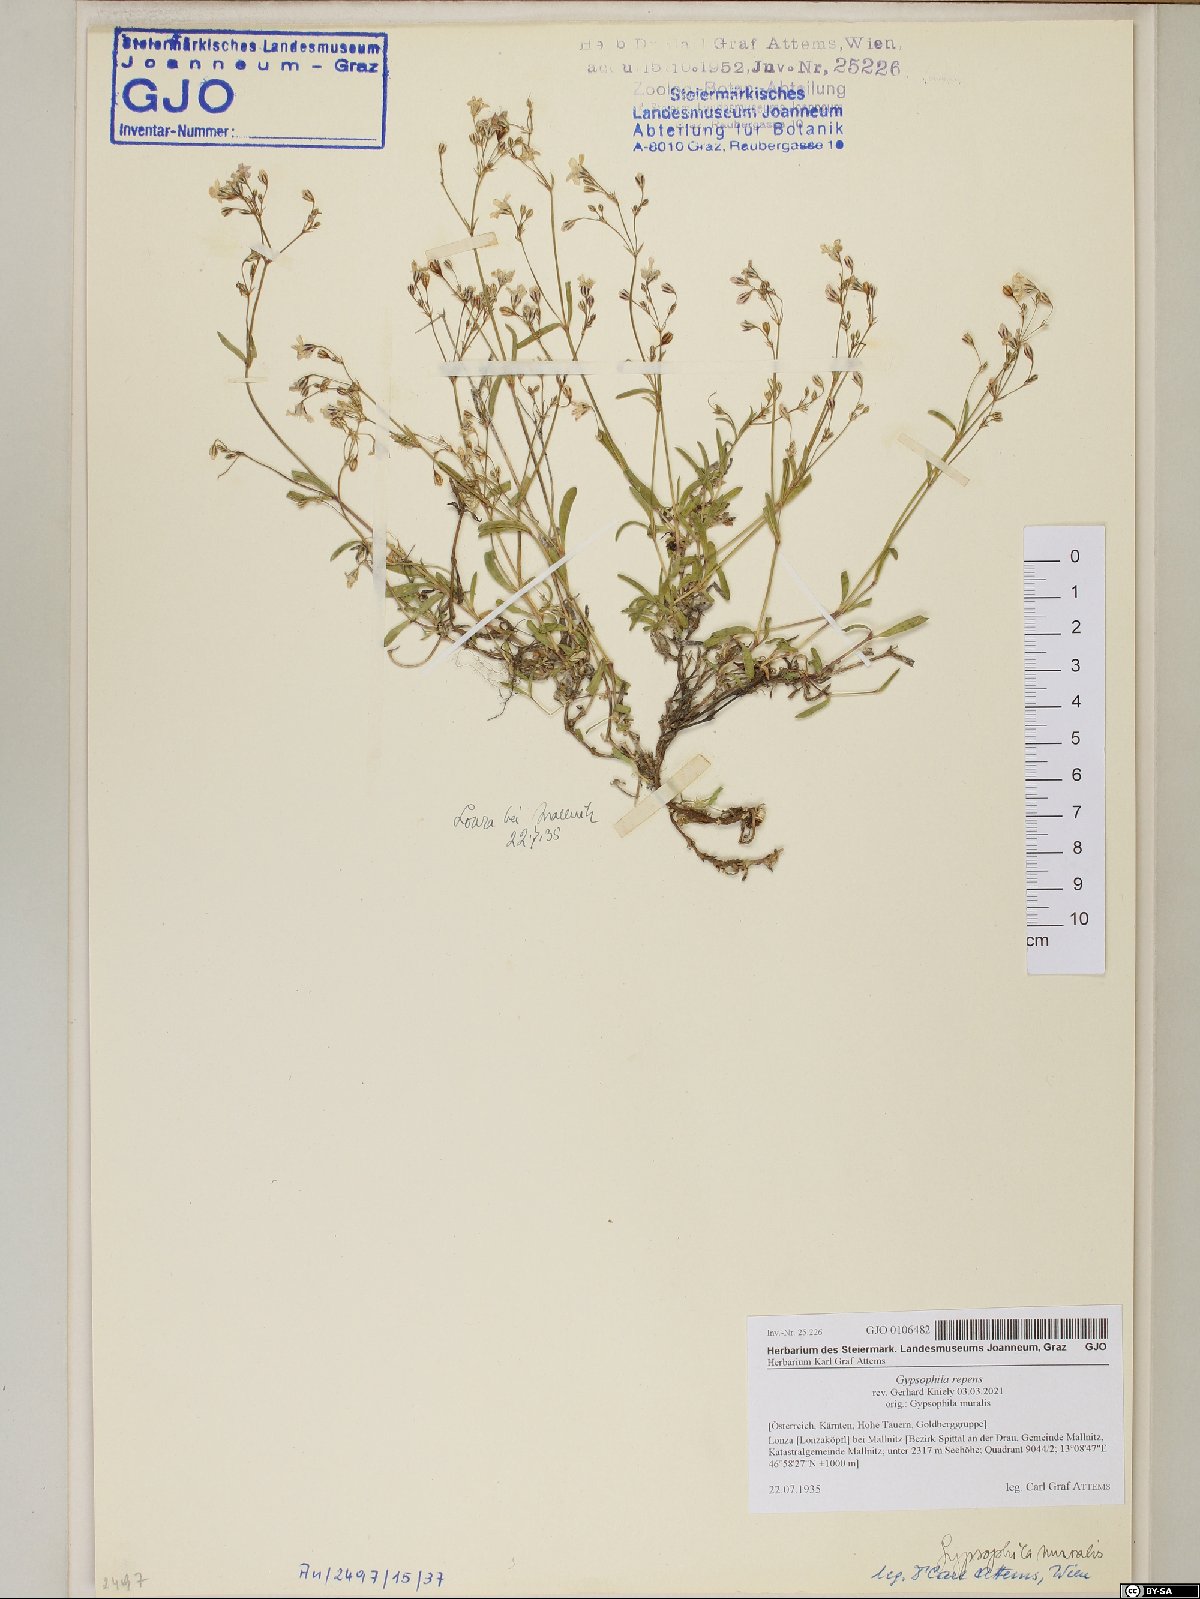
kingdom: Plantae
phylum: Tracheophyta
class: Magnoliopsida
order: Caryophyllales
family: Caryophyllaceae
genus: Gypsophila
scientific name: Gypsophila repens
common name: Creeping baby's-breath
